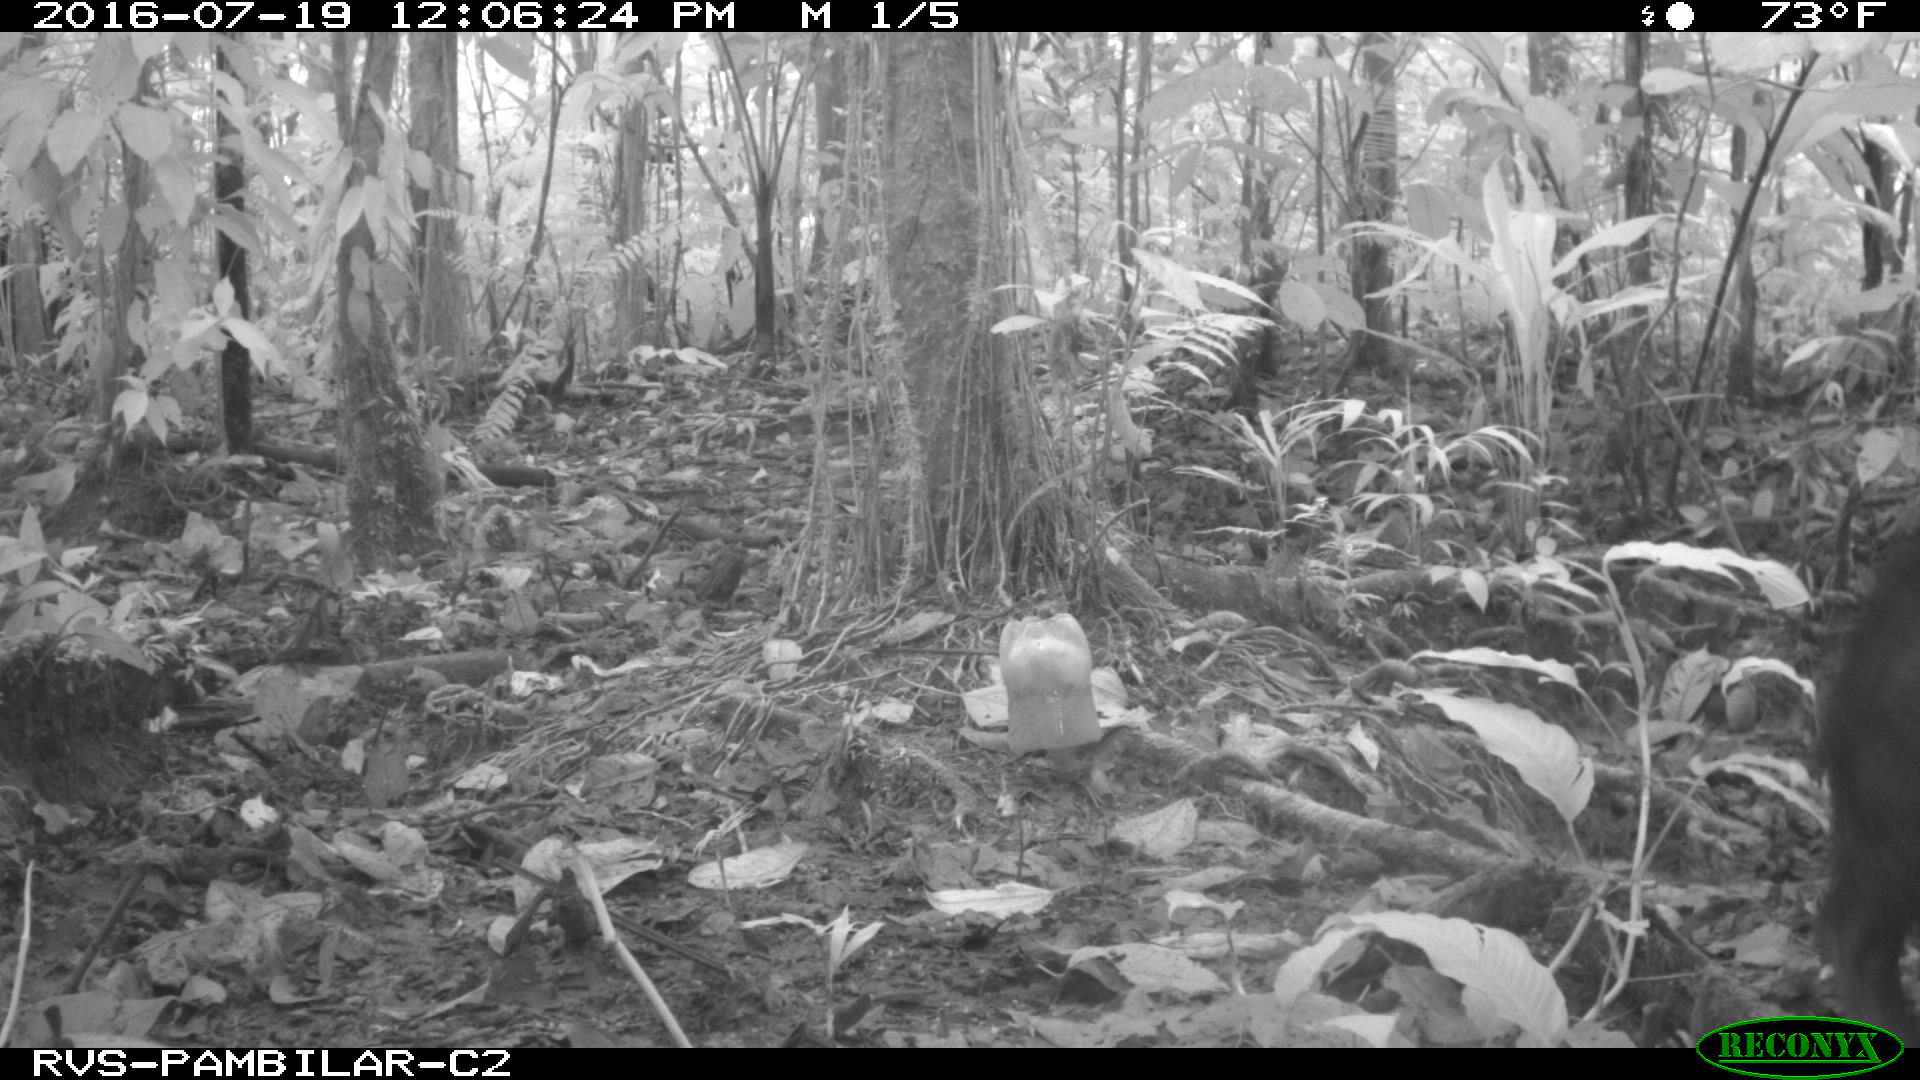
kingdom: Animalia
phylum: Chordata
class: Mammalia
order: Artiodactyla
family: Tayassuidae
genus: Tayassu
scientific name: Tayassu pecari
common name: White-lipped peccary
